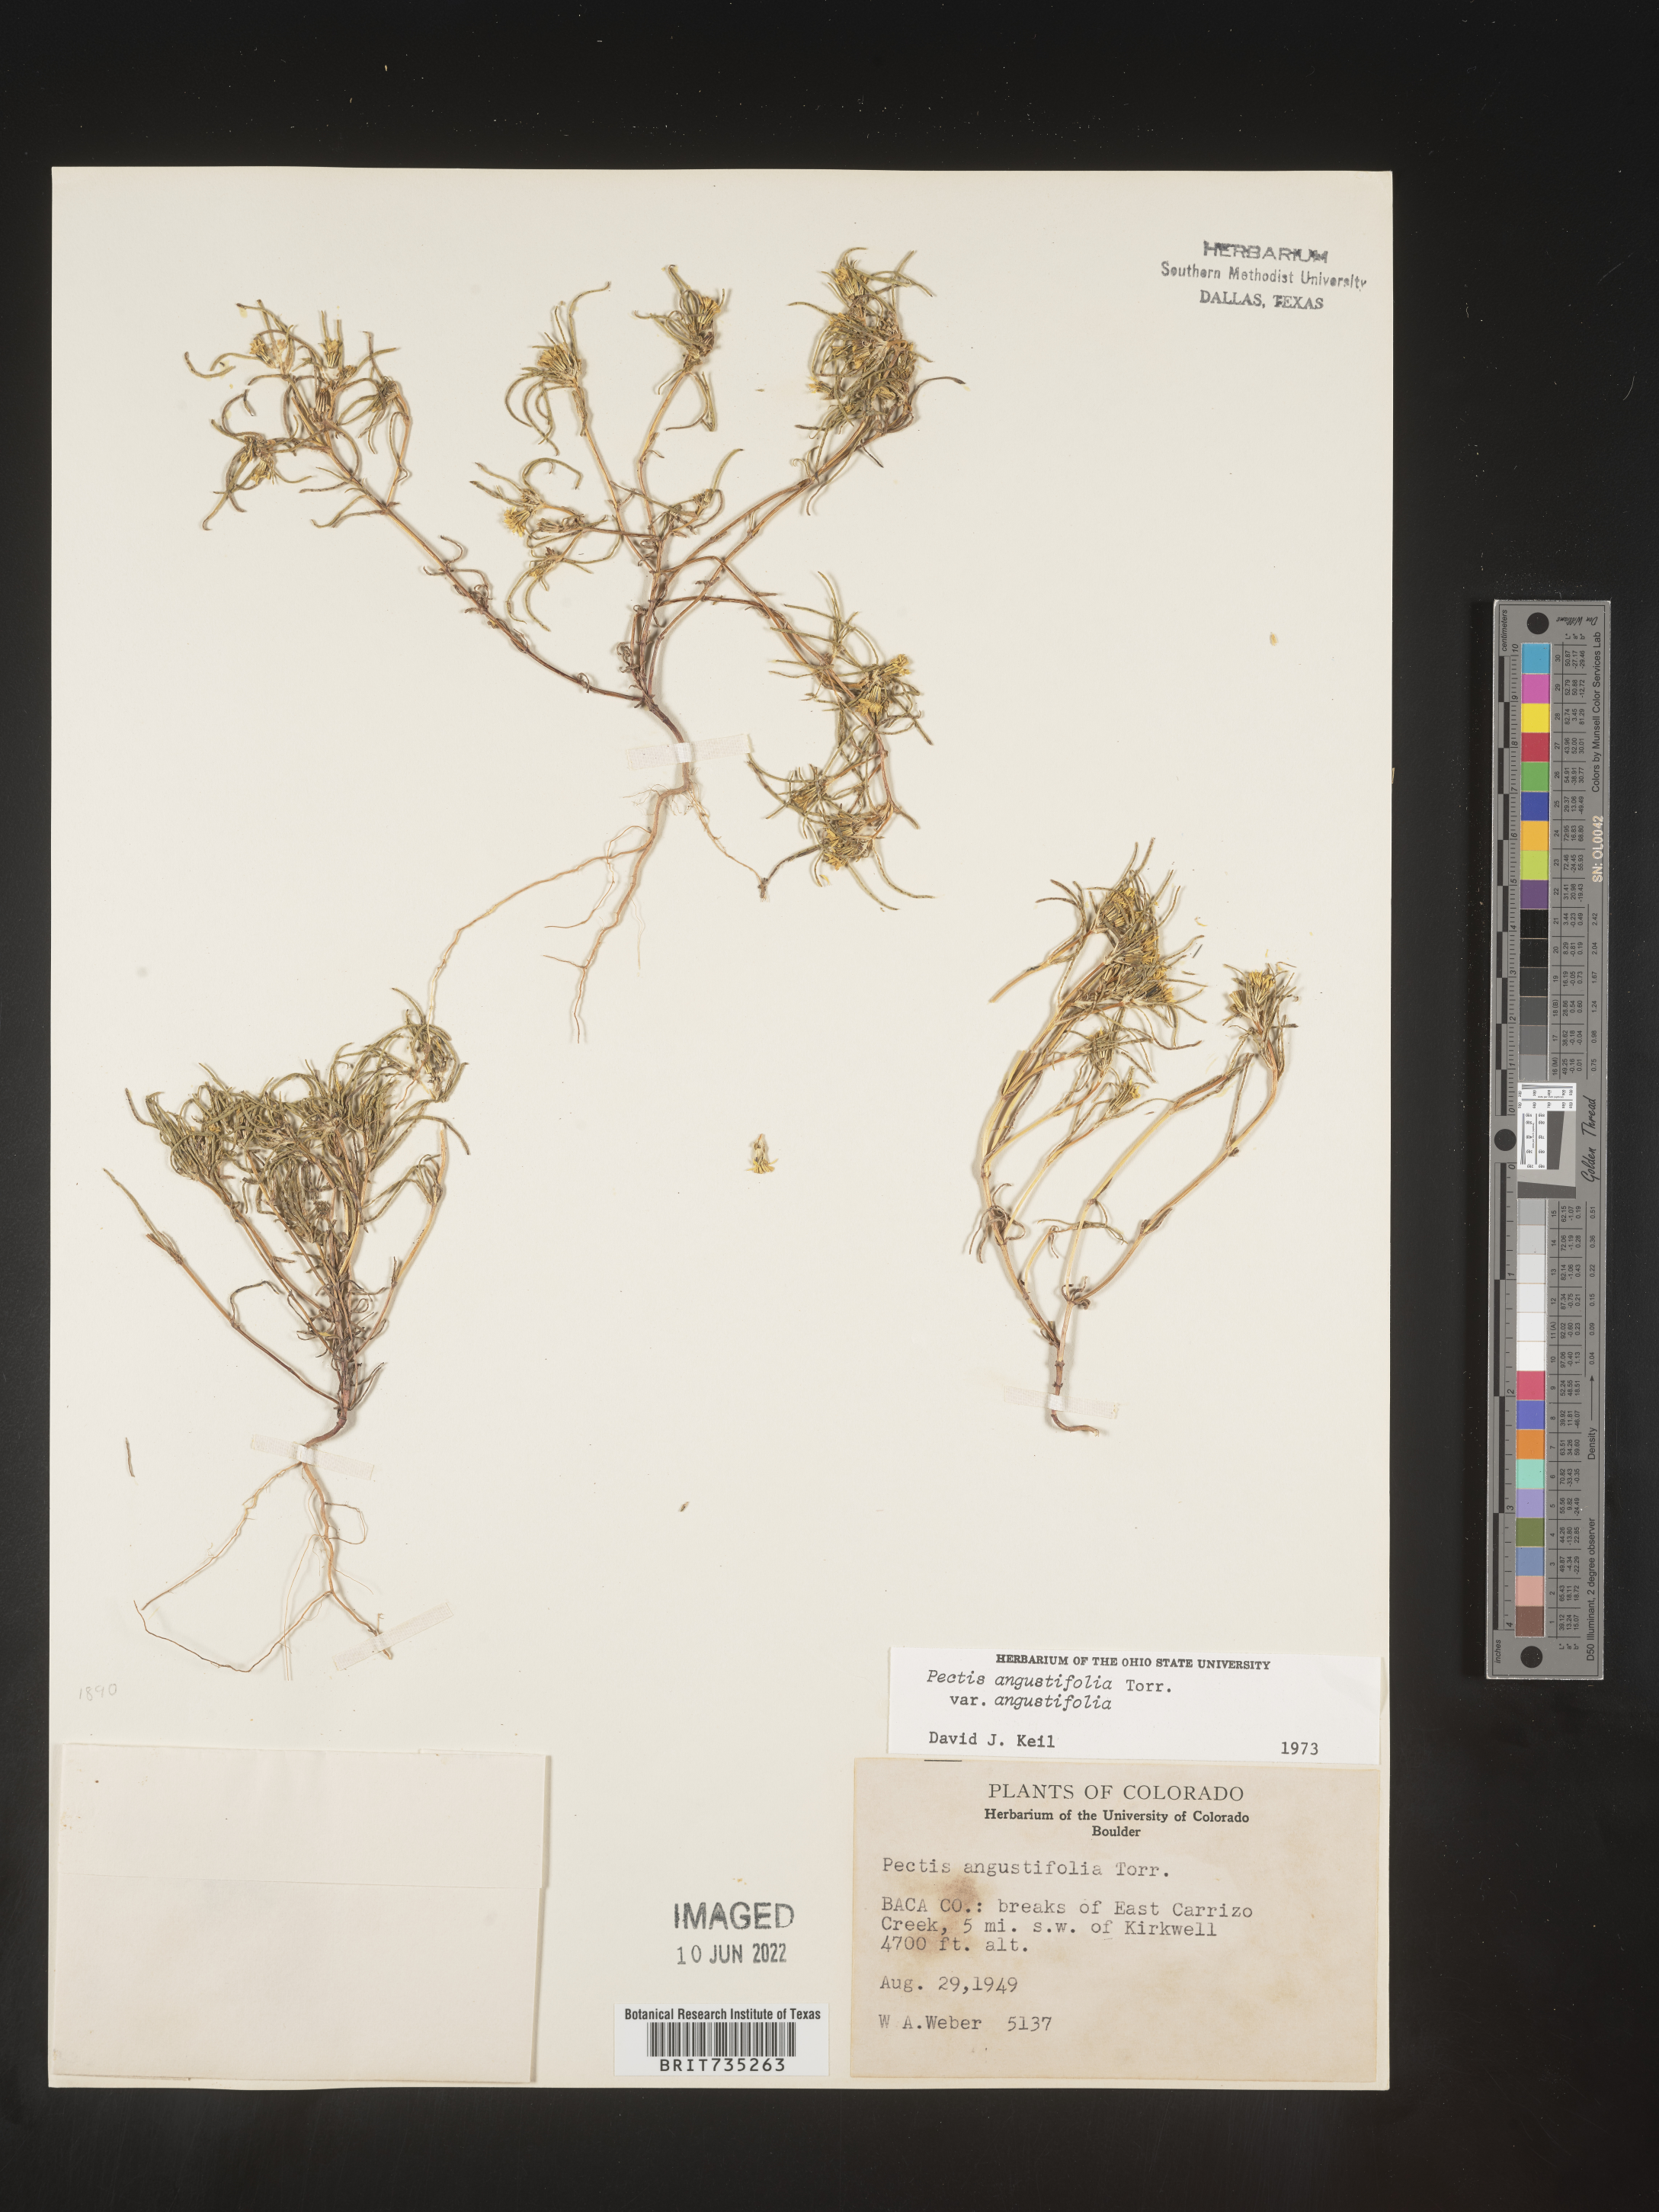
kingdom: Plantae
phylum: Tracheophyta
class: Magnoliopsida
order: Asterales
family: Asteraceae
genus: Pectis
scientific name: Pectis angustifolia
